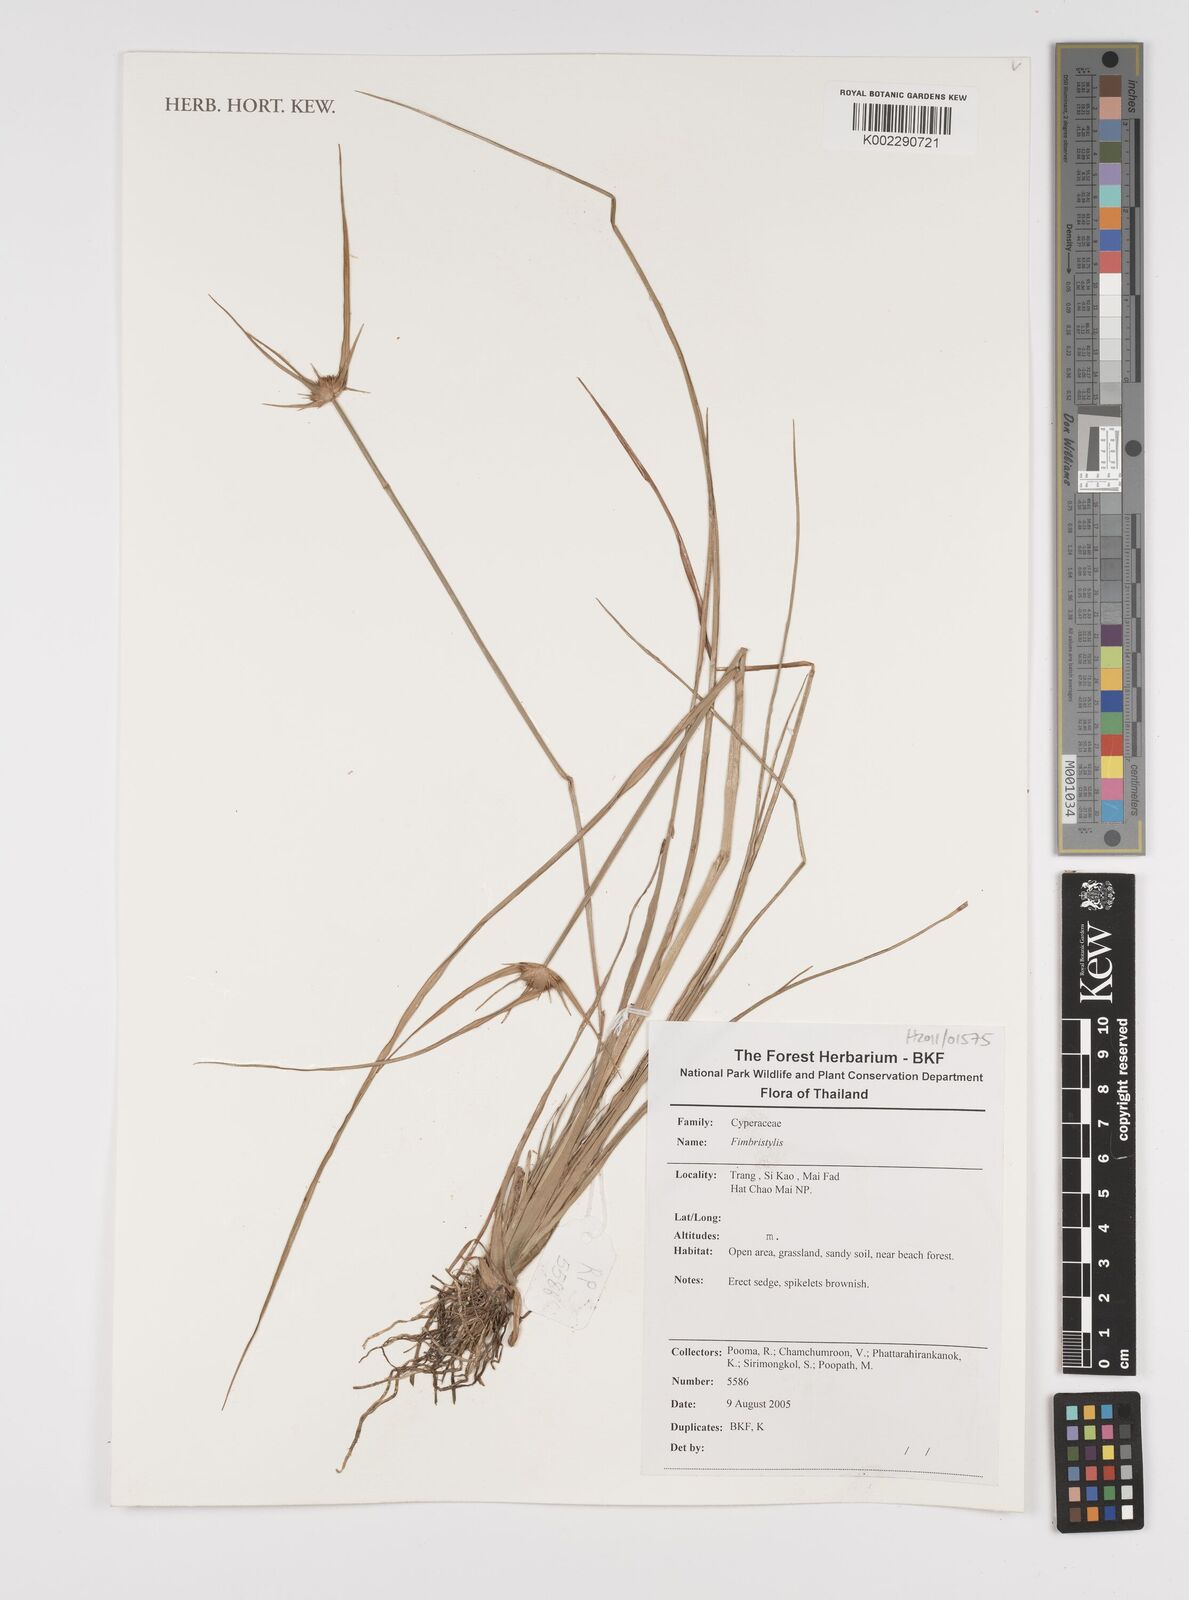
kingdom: Plantae
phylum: Tracheophyta
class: Liliopsida
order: Poales
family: Cyperaceae
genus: Fimbristylis
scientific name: Fimbristylis
